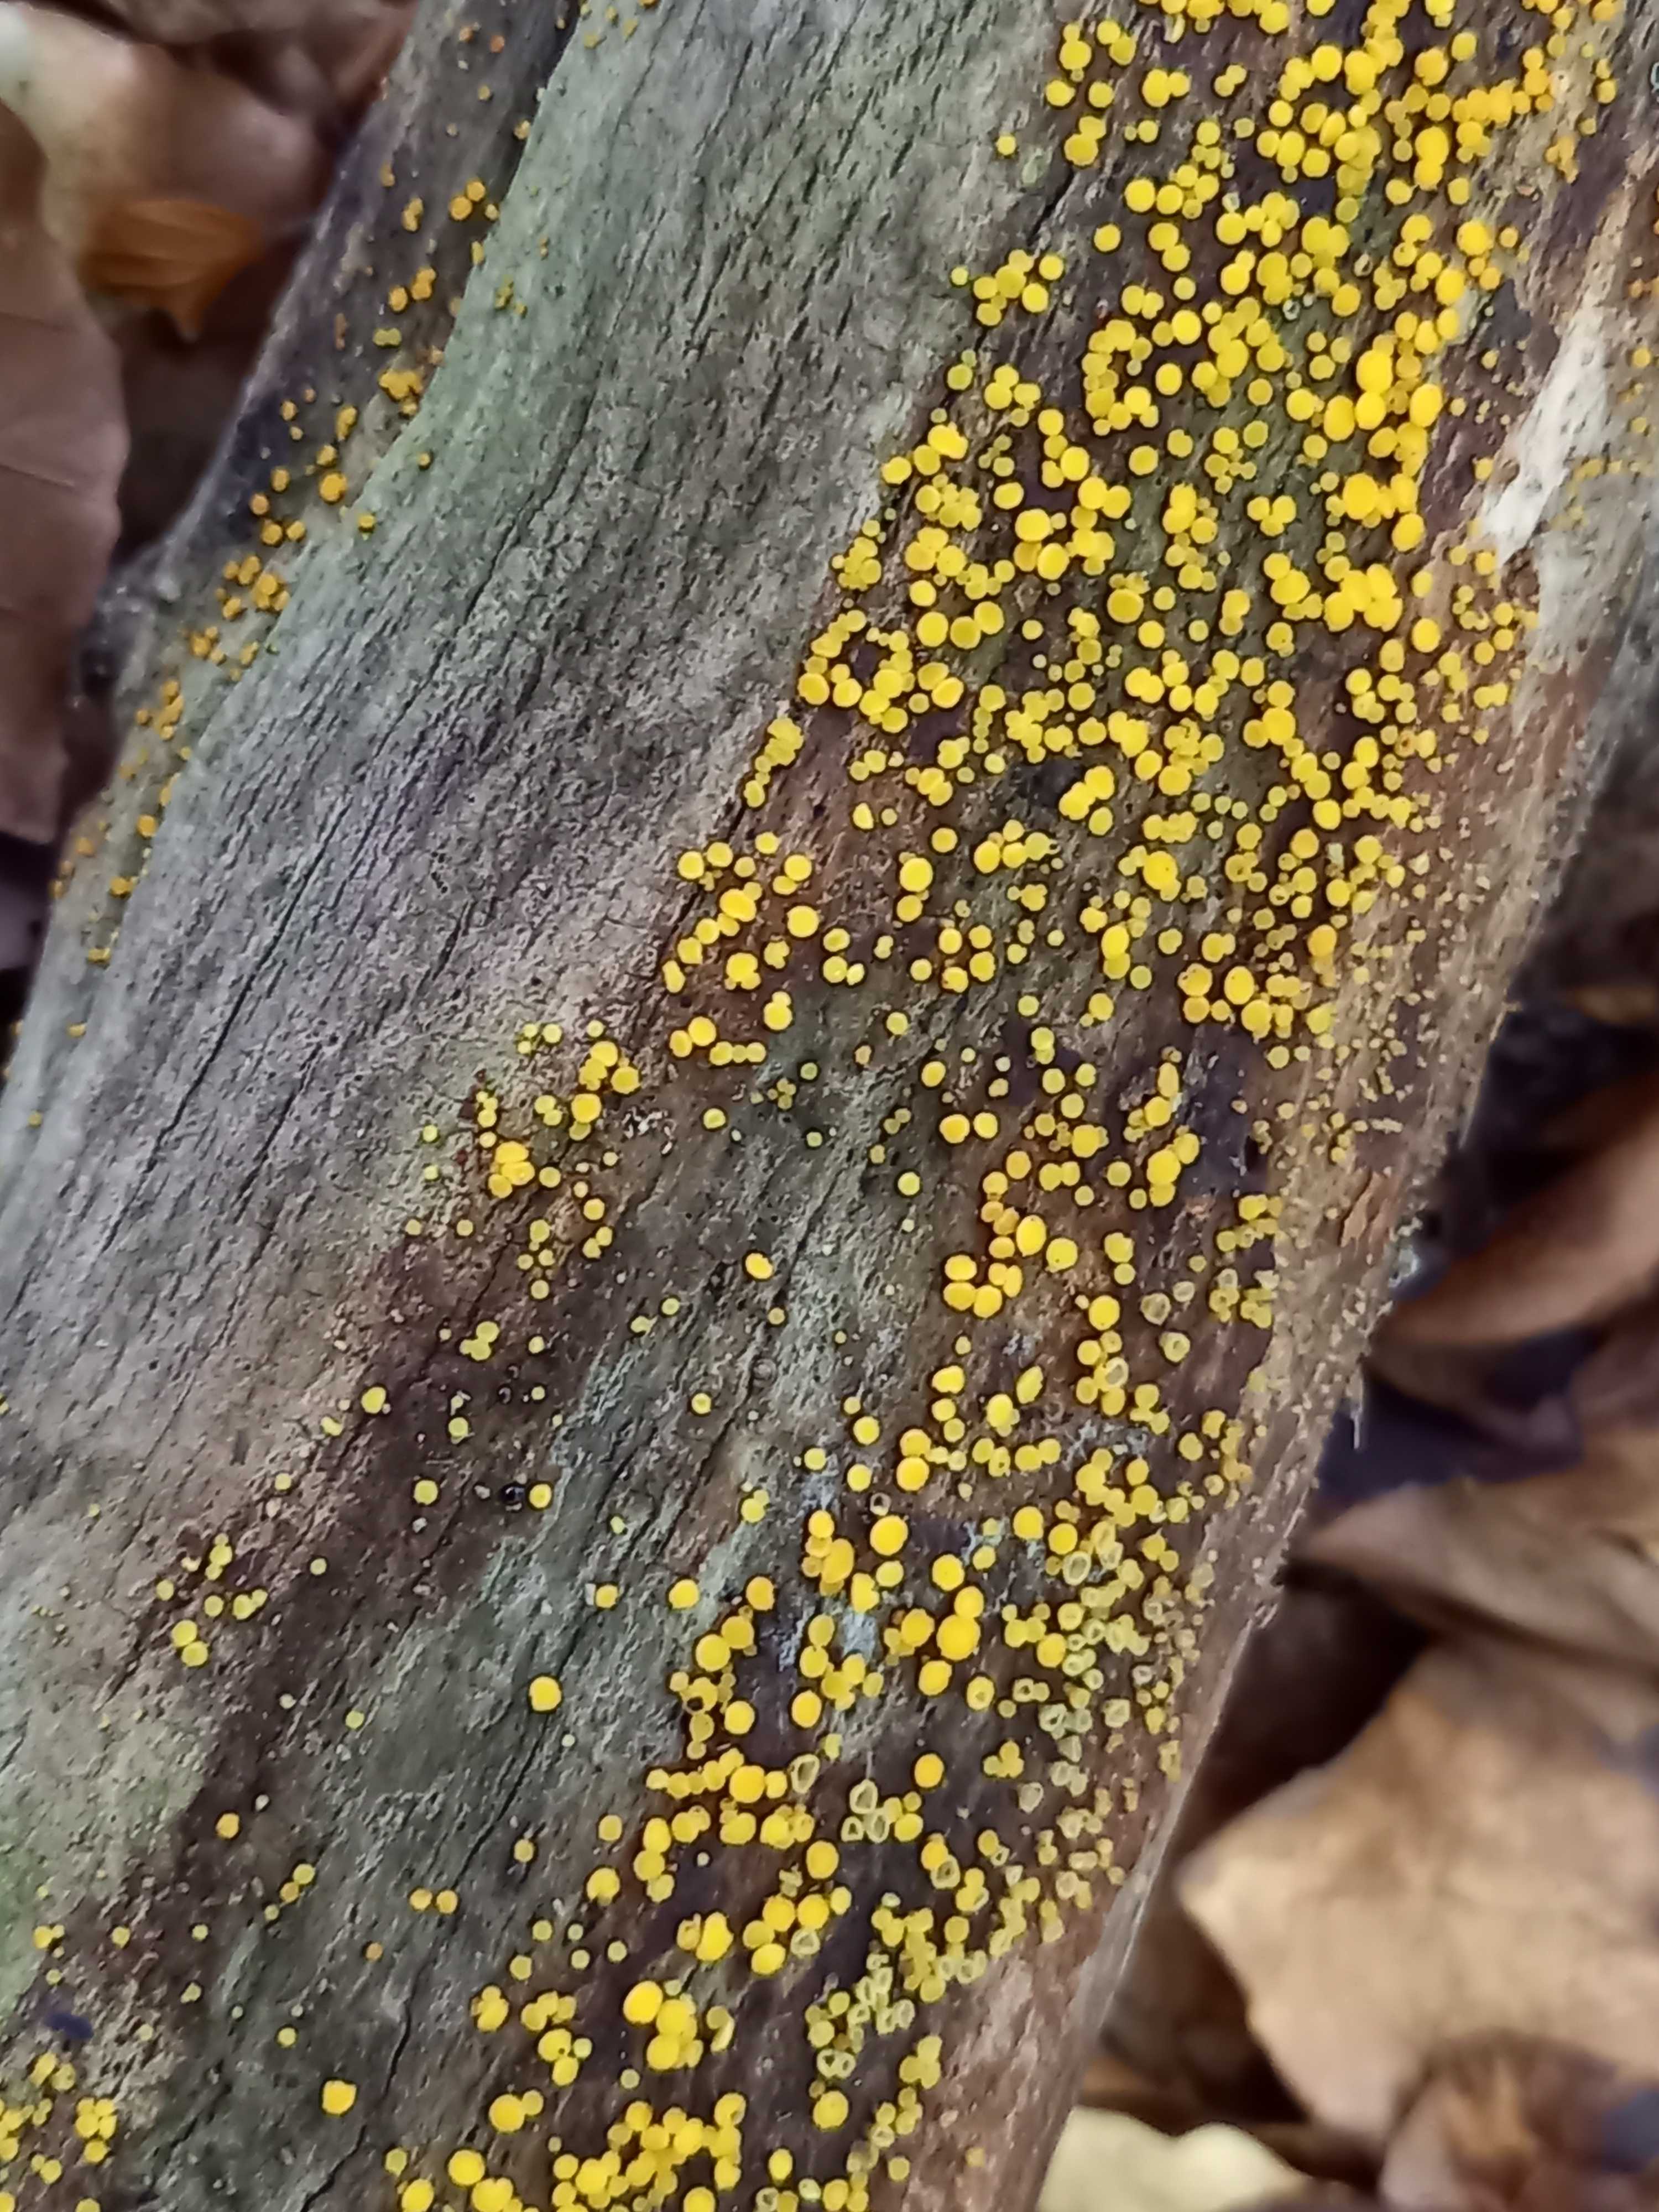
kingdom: Fungi
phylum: Ascomycota
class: Leotiomycetes
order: Helotiales
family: Pezizellaceae
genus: Calycina
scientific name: Calycina citrina
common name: almindelig gulskive
